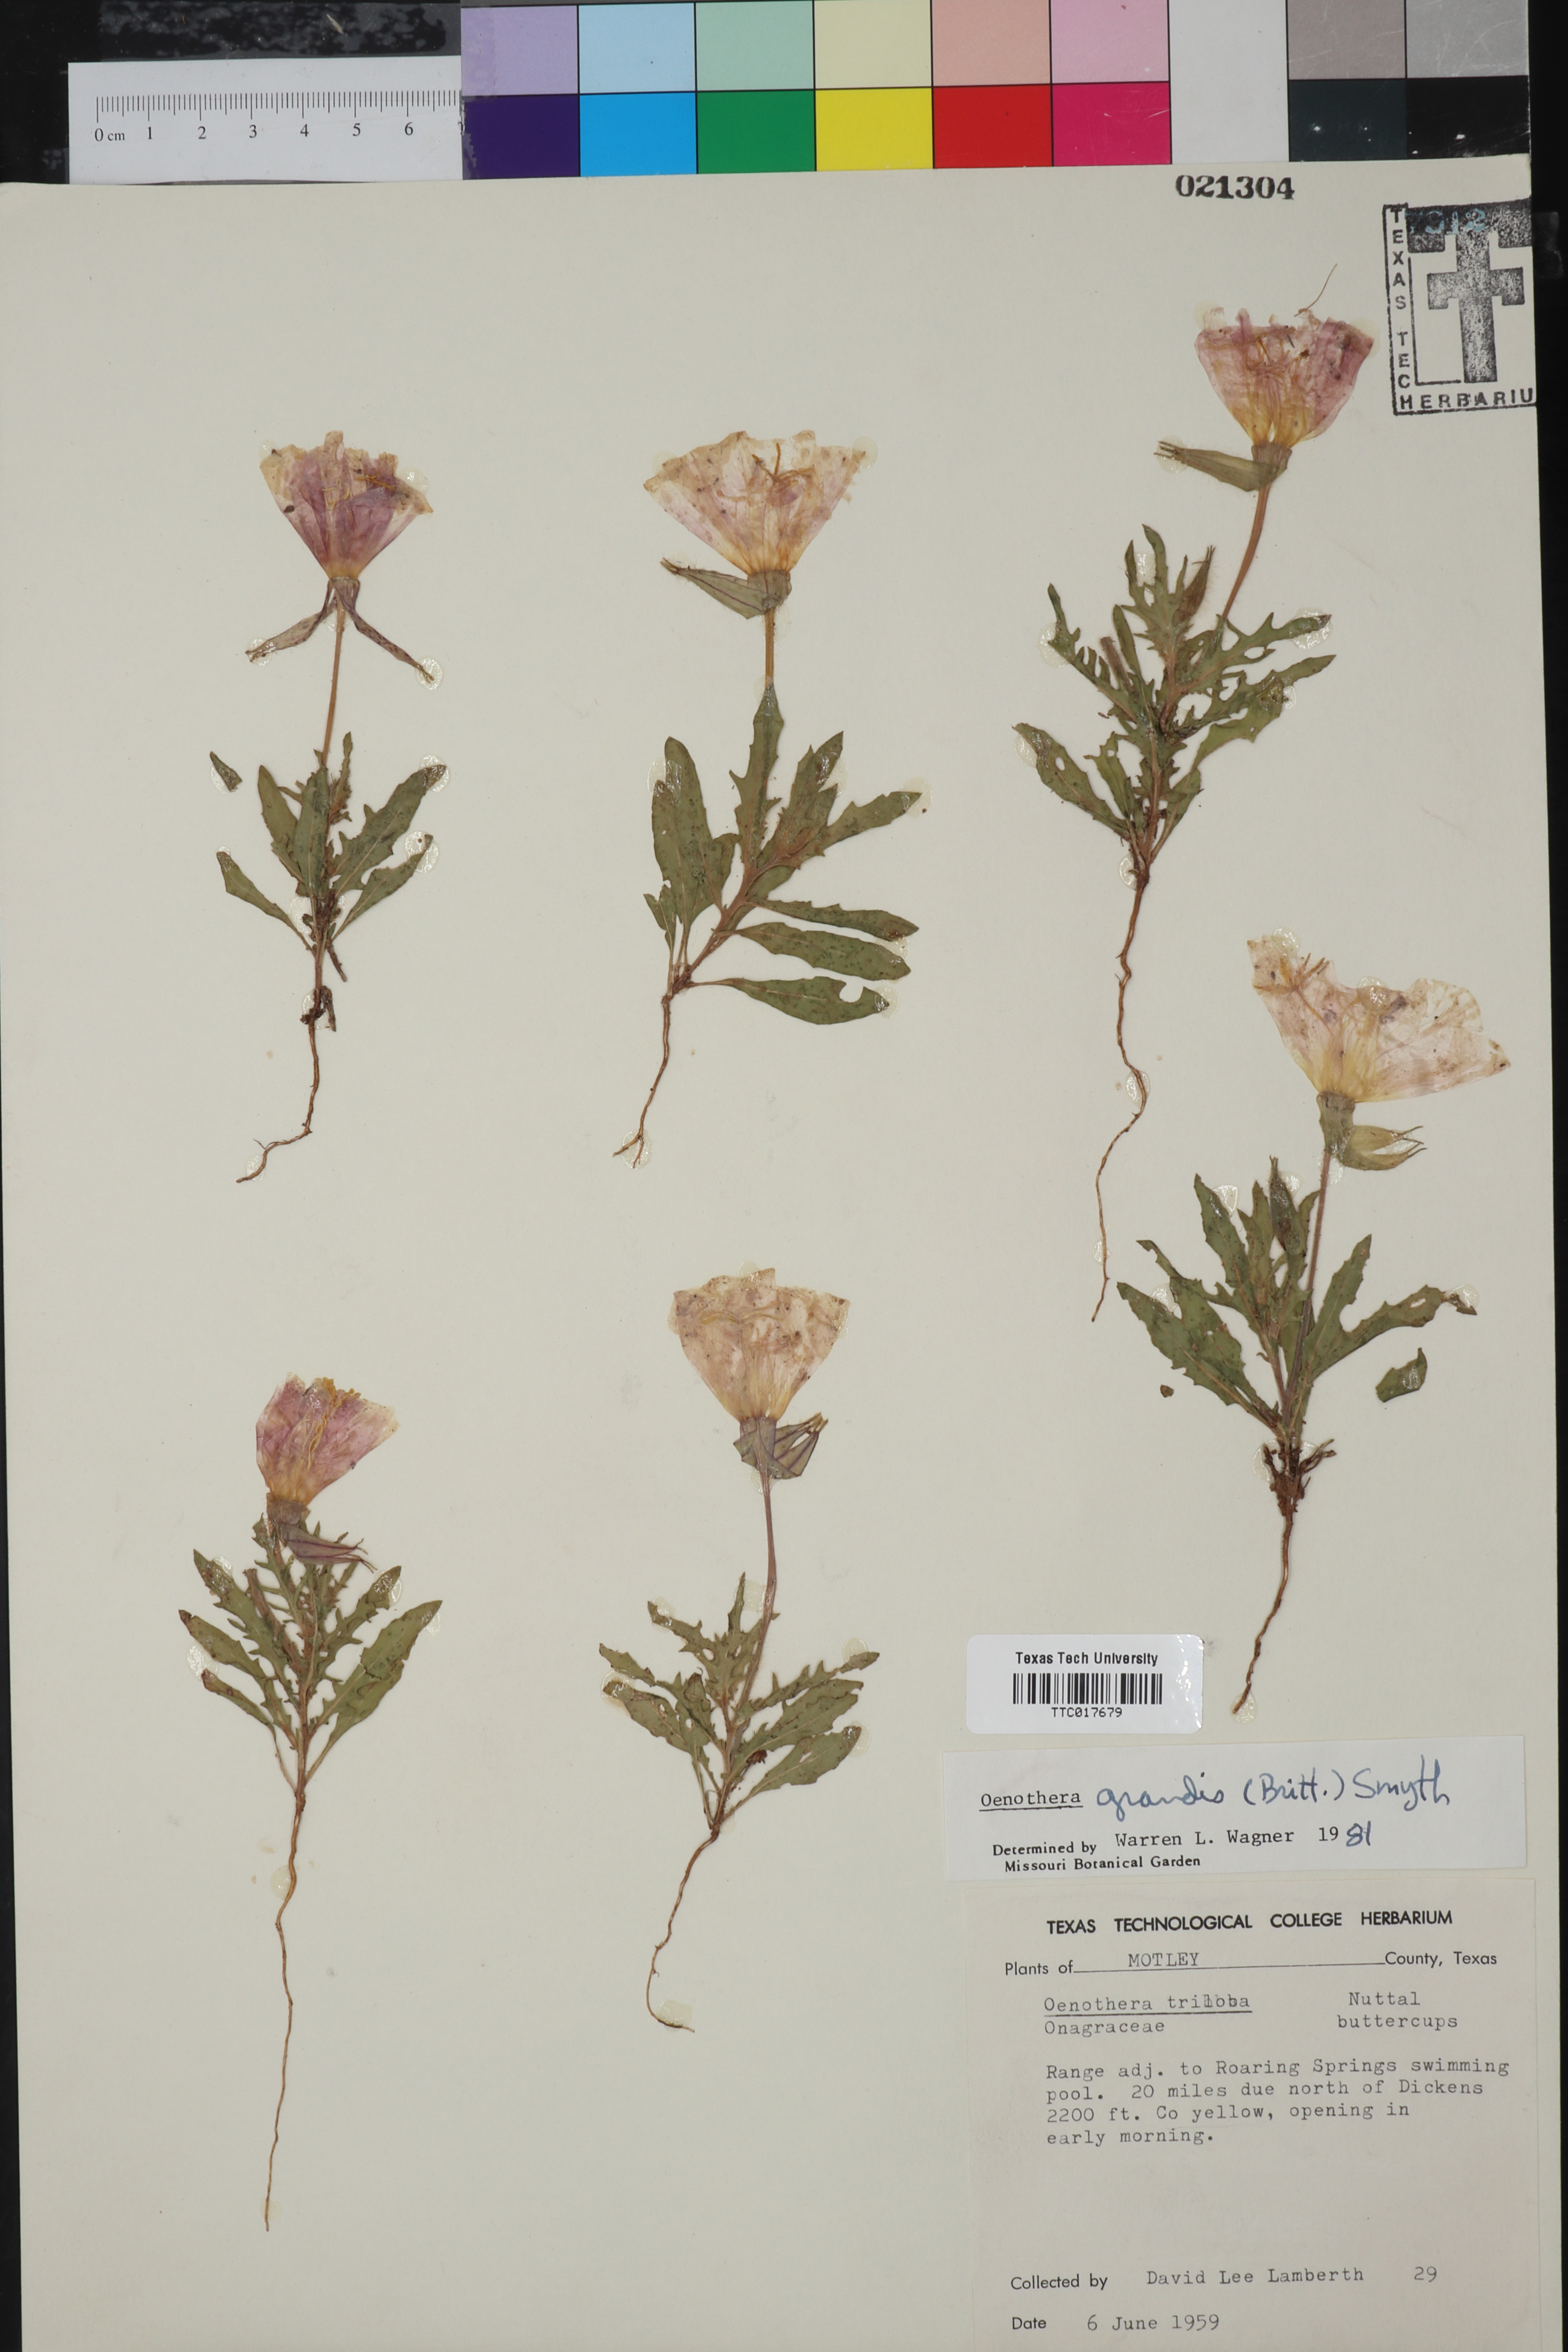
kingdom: Plantae
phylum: Tracheophyta
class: Magnoliopsida
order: Myrtales
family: Onagraceae
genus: Oenothera
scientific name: Oenothera grandis
